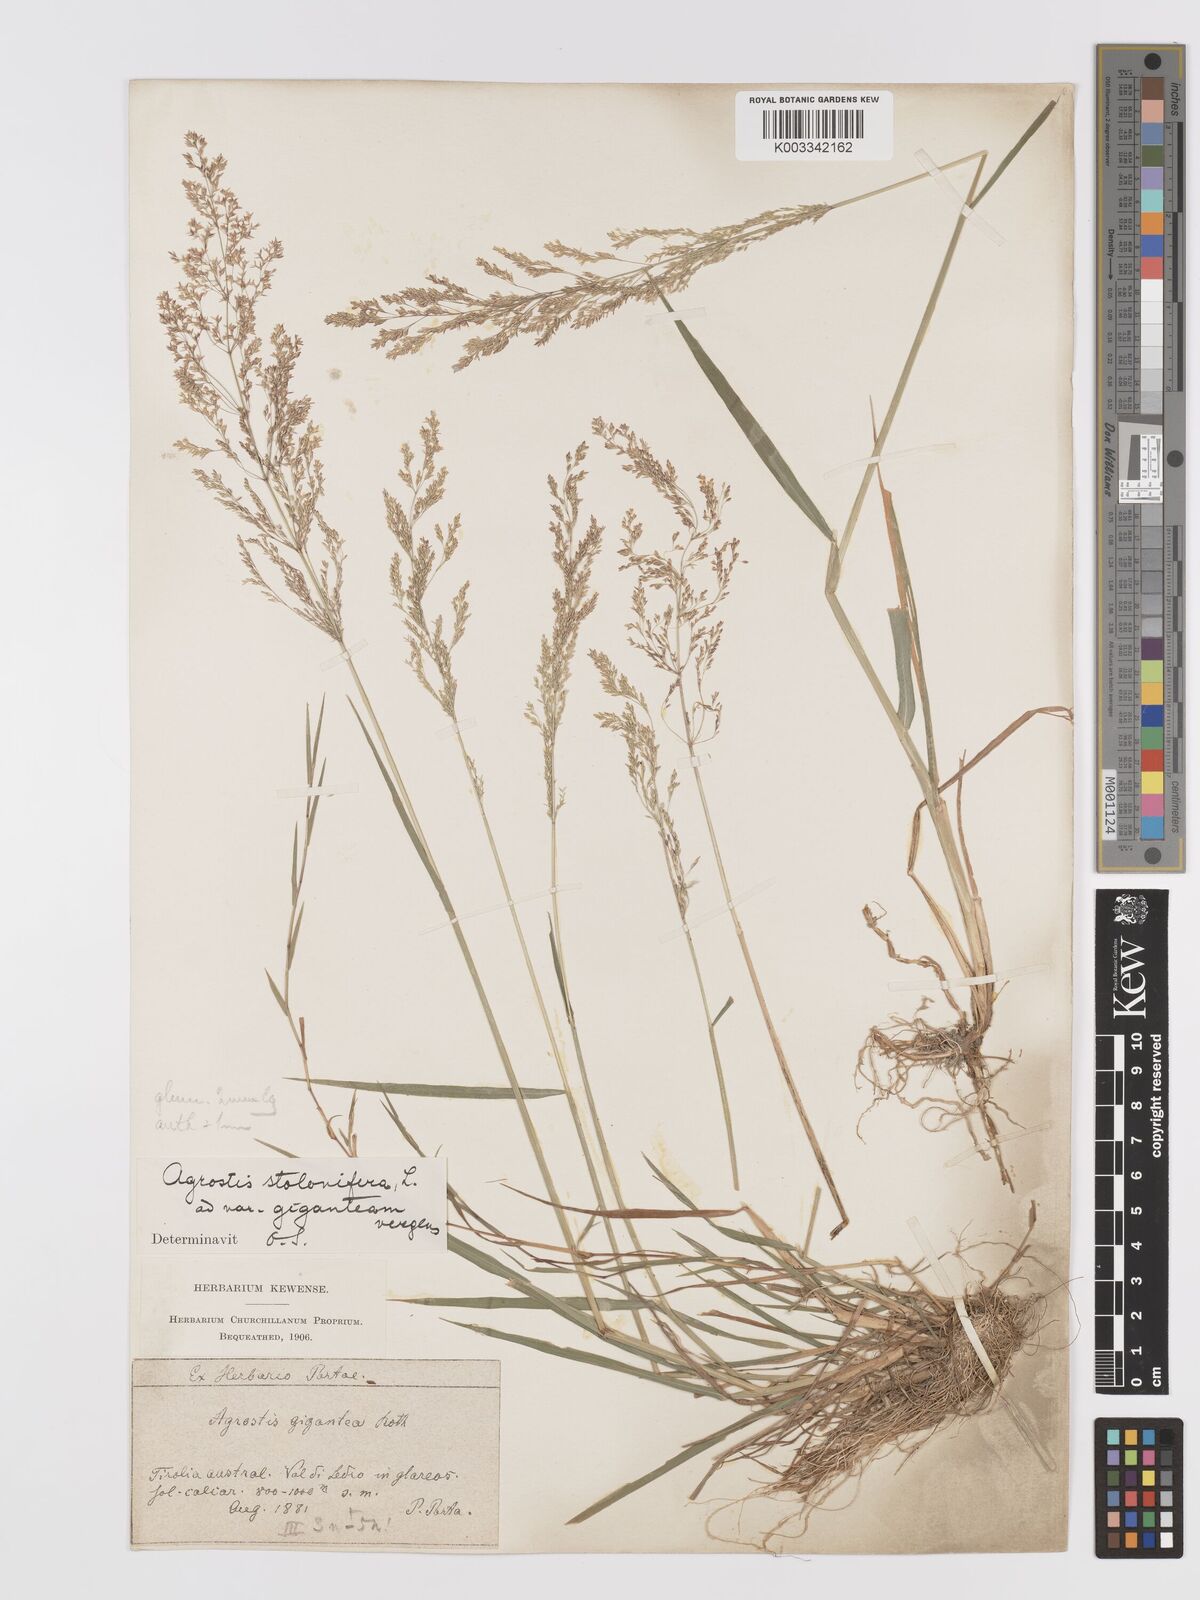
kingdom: Plantae
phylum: Tracheophyta
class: Liliopsida
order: Poales
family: Poaceae
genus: Agrostis
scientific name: Agrostis stolonifera
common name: Creeping bentgrass
